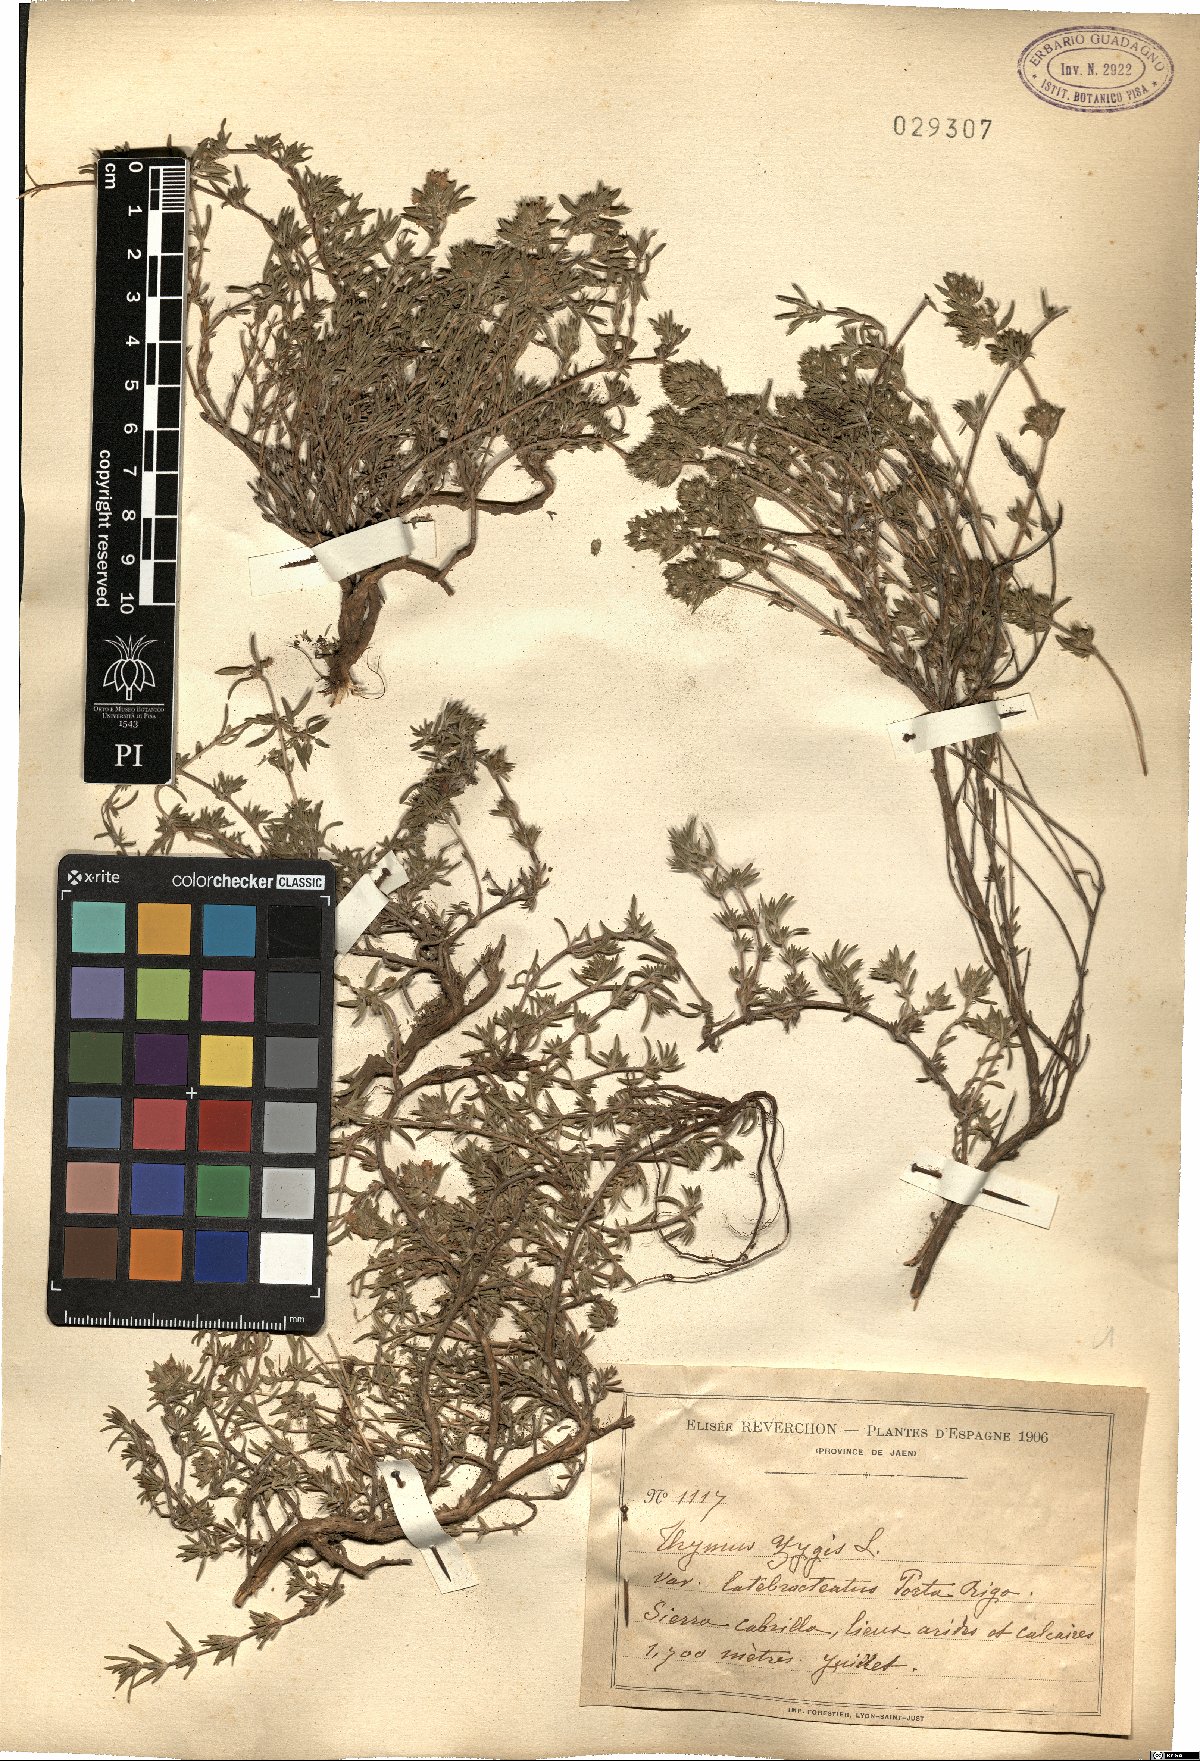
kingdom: Plantae
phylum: Tracheophyta
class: Magnoliopsida
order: Lamiales
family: Lamiaceae
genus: Thymus
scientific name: Thymus zygis
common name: White thyme
